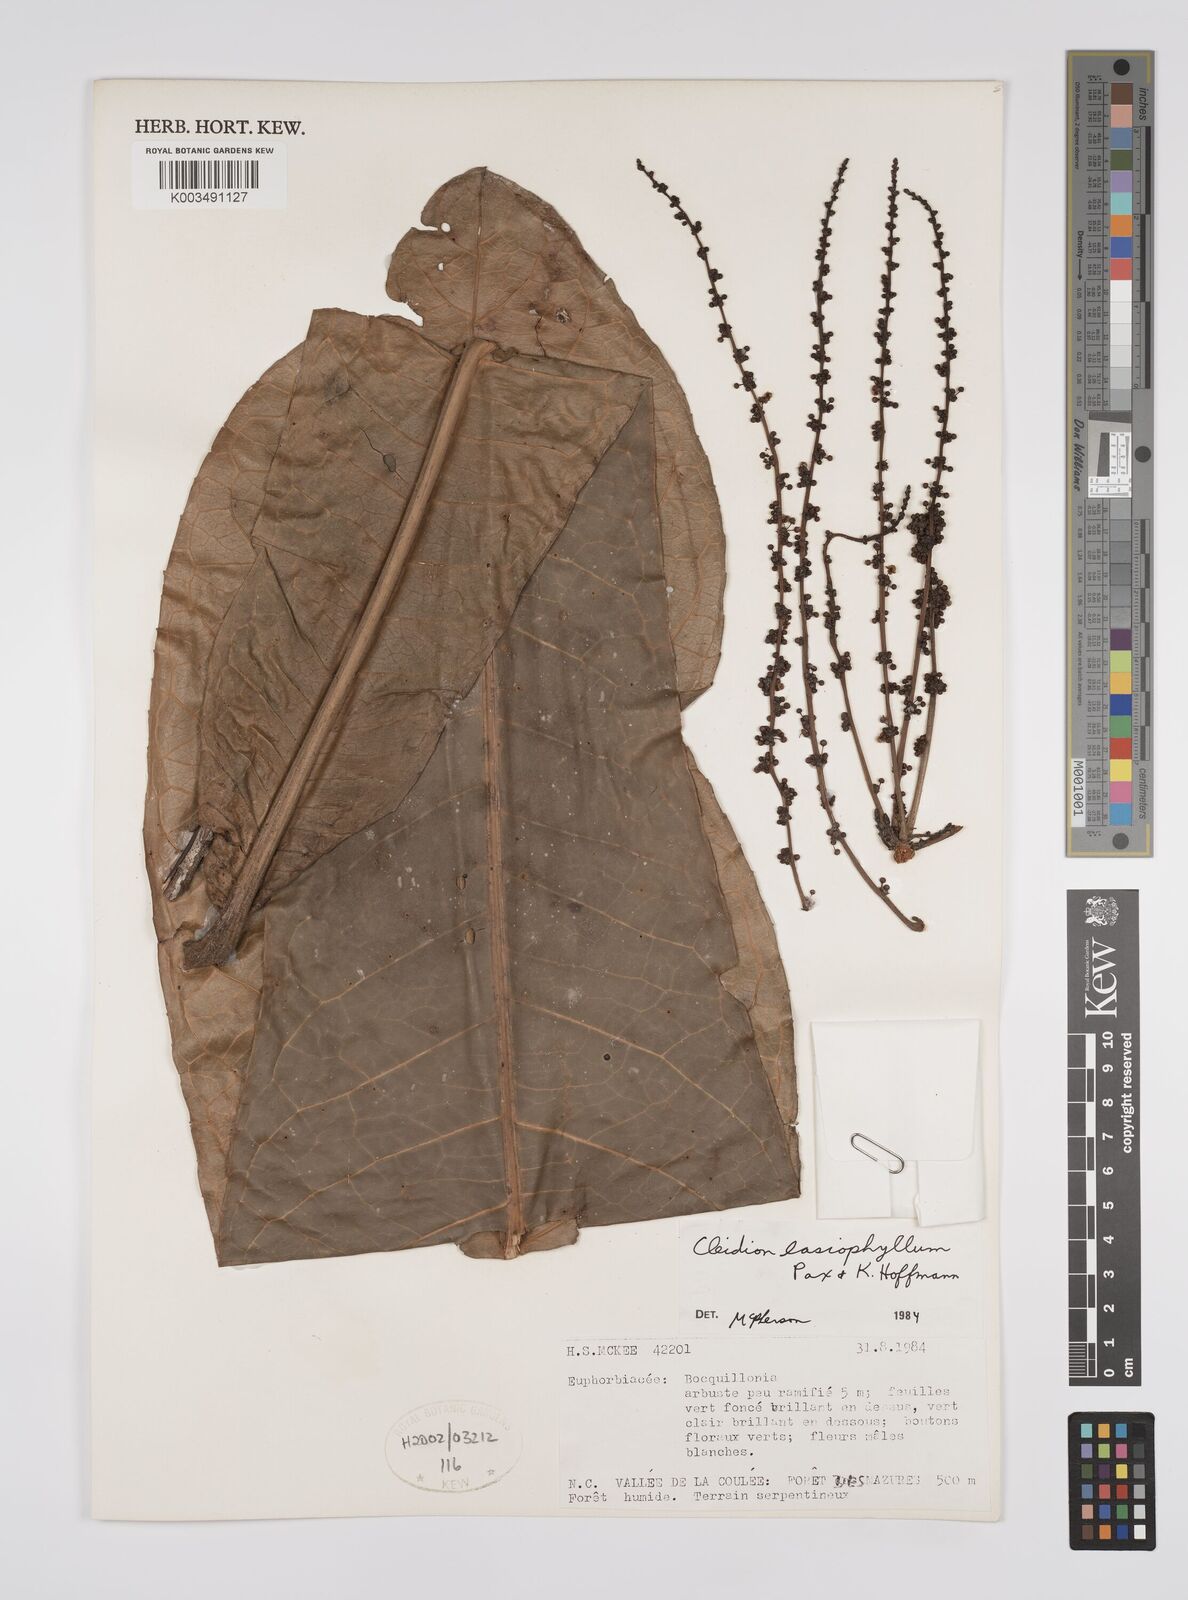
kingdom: Plantae
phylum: Tracheophyta
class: Magnoliopsida
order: Malpighiales
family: Euphorbiaceae
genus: Cleidion
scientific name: Cleidion lasiophyllum
